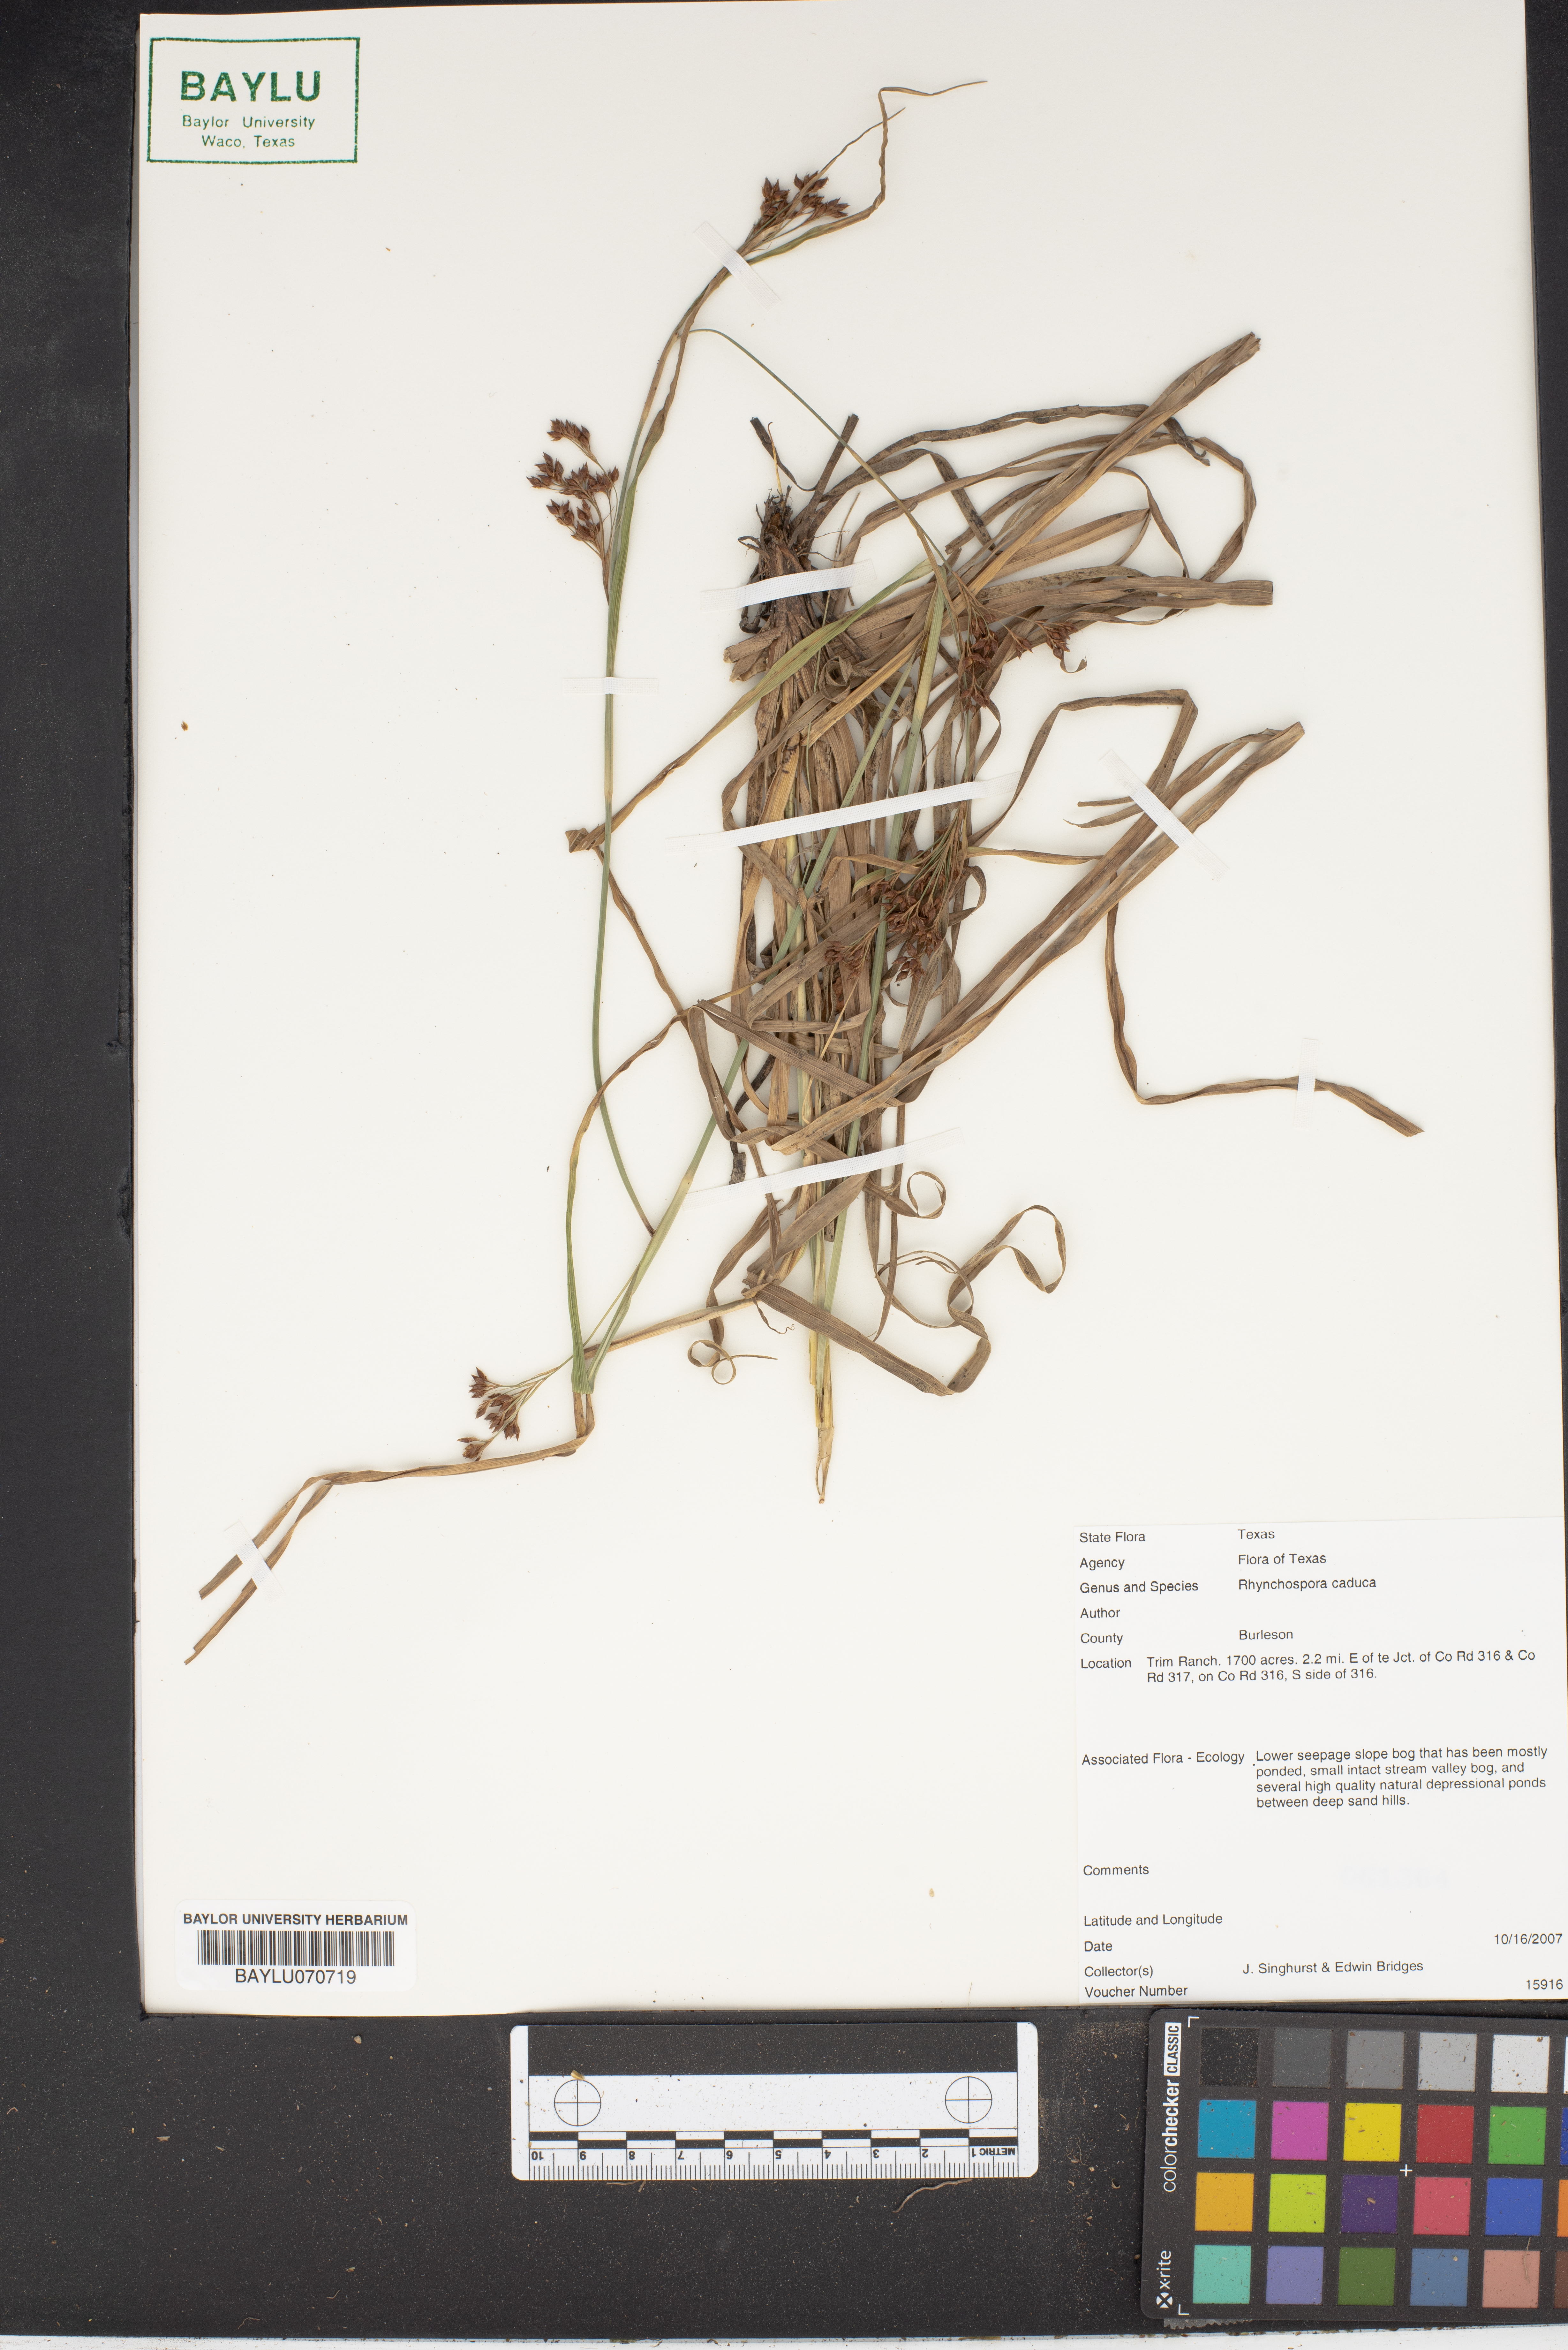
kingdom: Plantae
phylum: Tracheophyta
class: Liliopsida
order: Poales
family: Cyperaceae
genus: Rhynchospora
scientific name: Rhynchospora caduca
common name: Anglestem beaksedge
